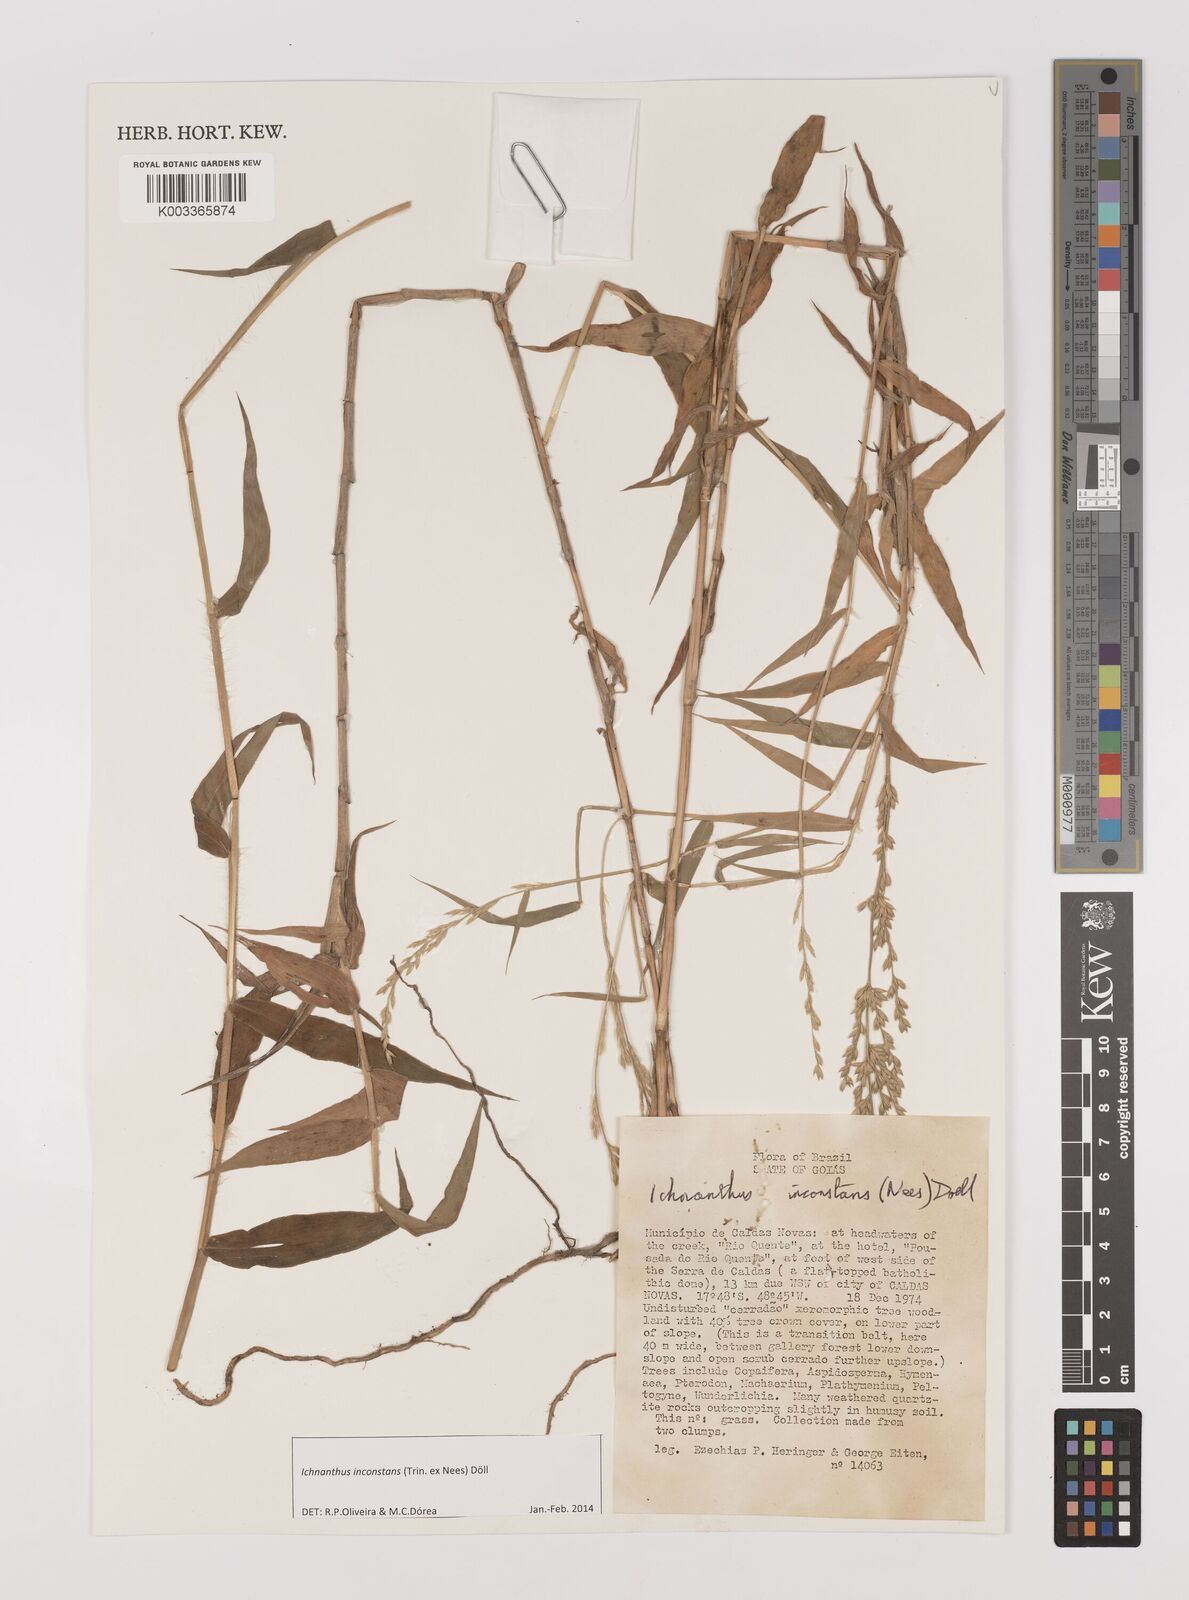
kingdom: Plantae
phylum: Tracheophyta
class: Liliopsida
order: Poales
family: Poaceae
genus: Ichnanthus
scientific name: Ichnanthus inconstans
